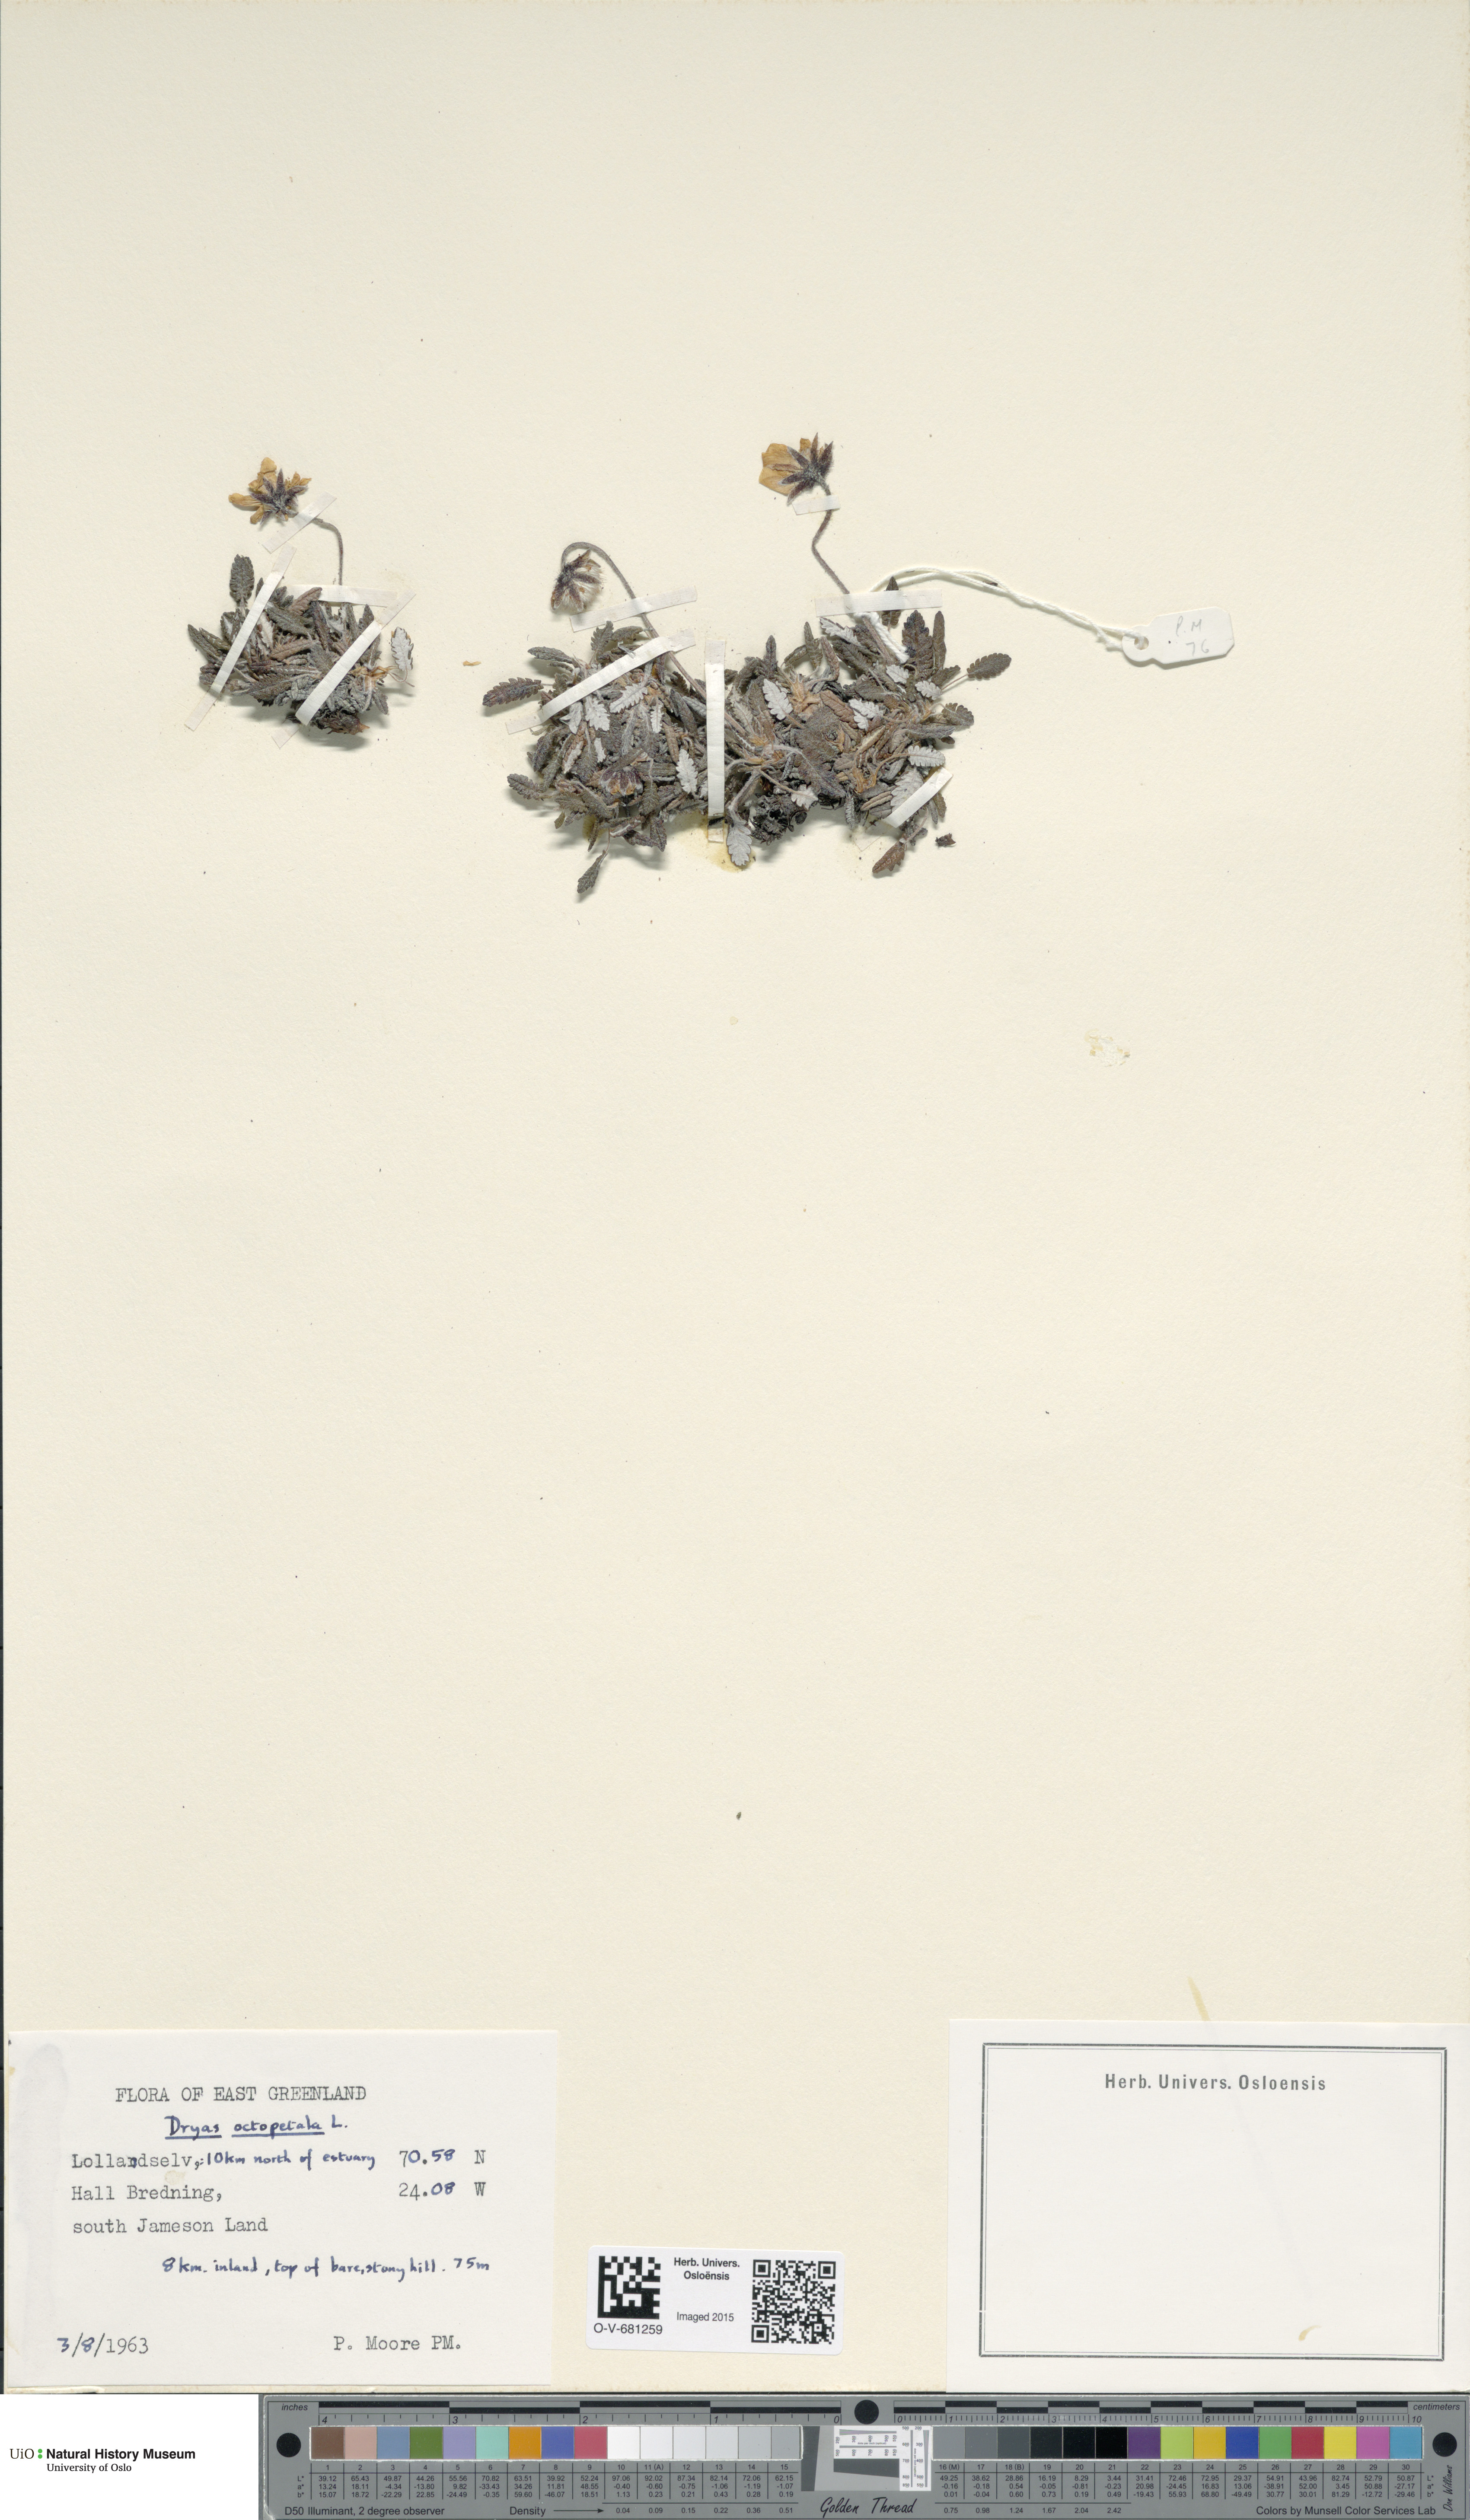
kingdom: Plantae
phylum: Tracheophyta
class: Magnoliopsida
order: Rosales
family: Rosaceae
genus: Dryas
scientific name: Dryas octopetala
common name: Eight-petal mountain-avens
